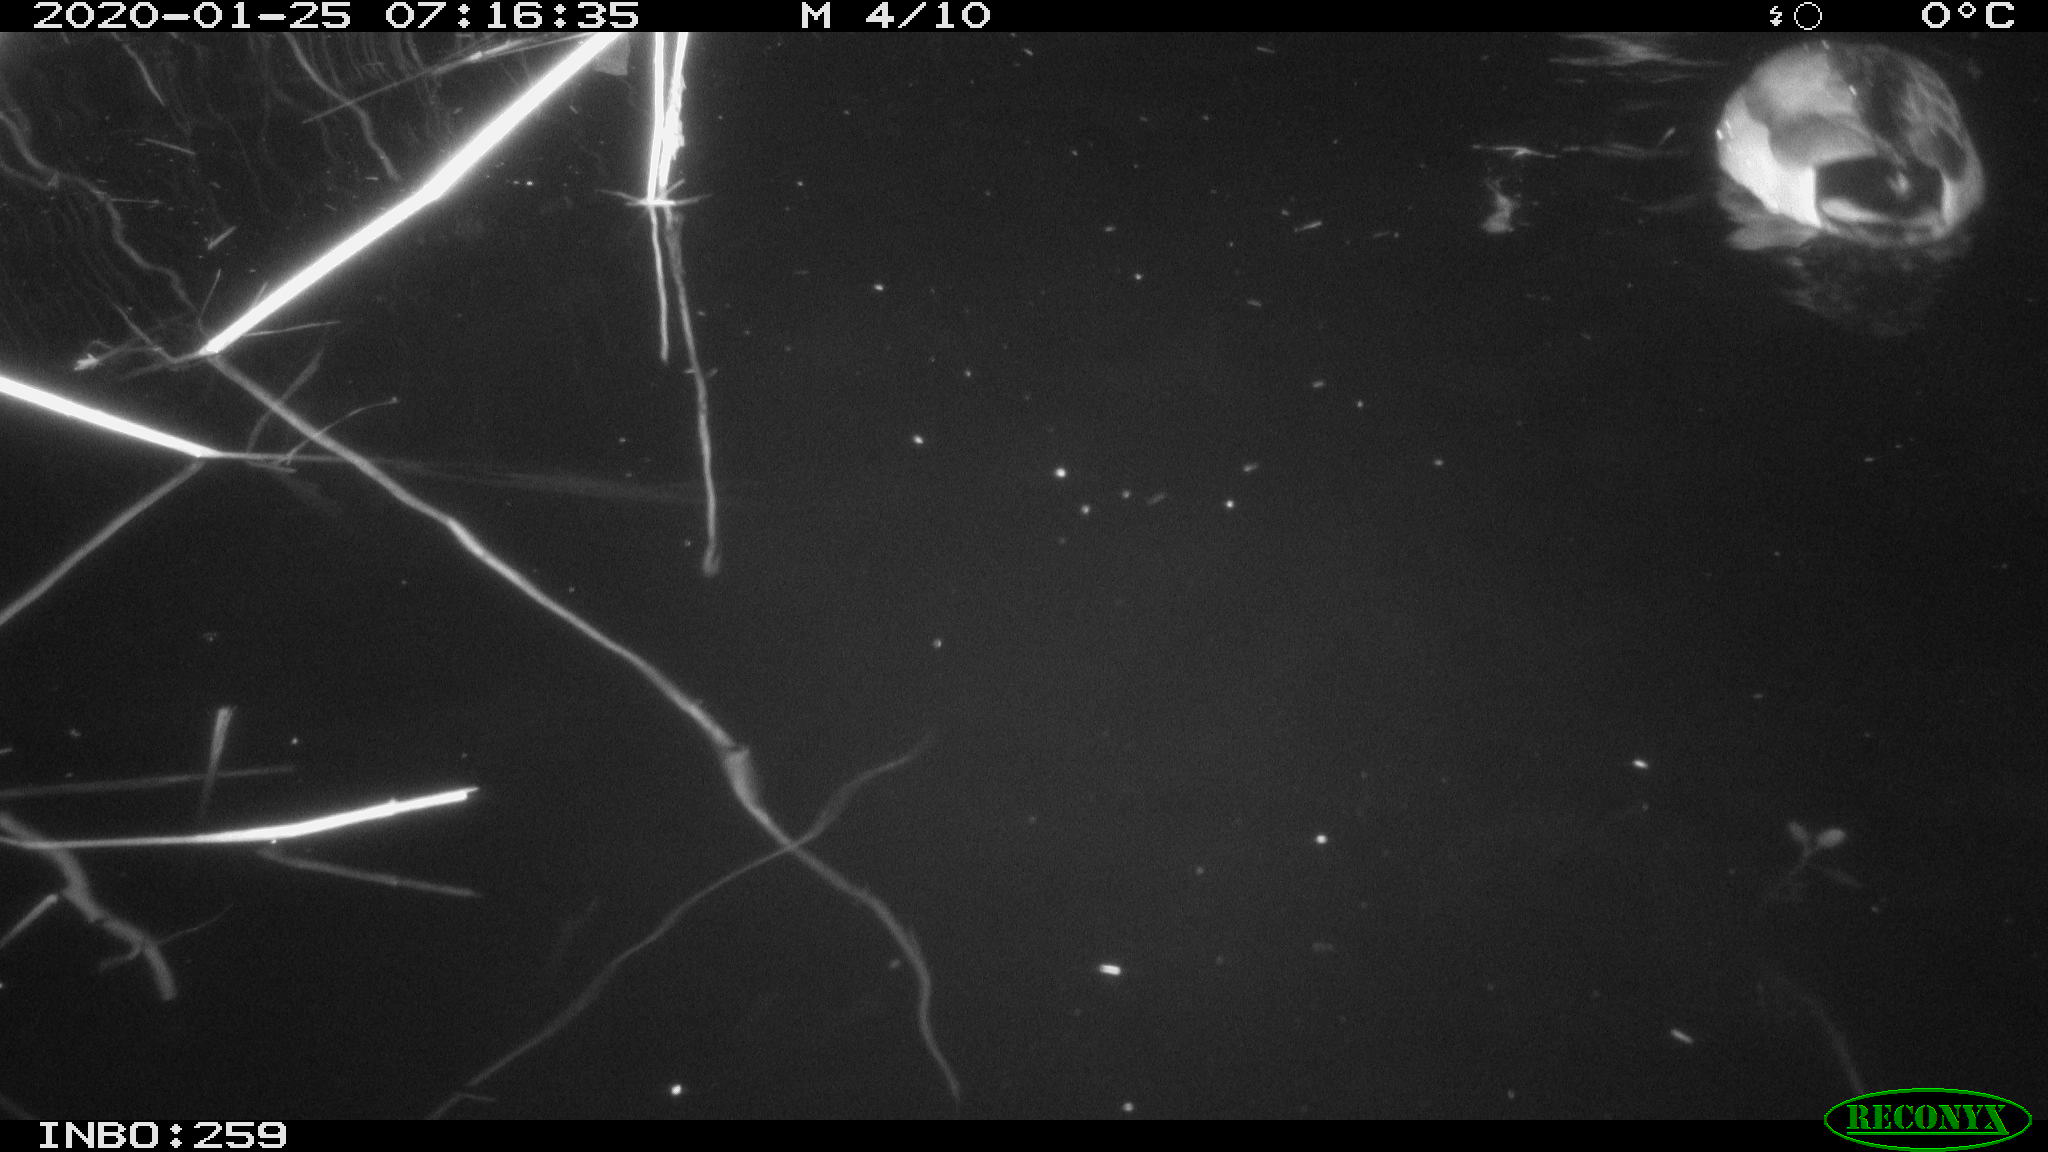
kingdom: Animalia
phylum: Chordata
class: Aves
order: Anseriformes
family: Anatidae
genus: Anas
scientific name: Anas platyrhynchos
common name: Mallard
